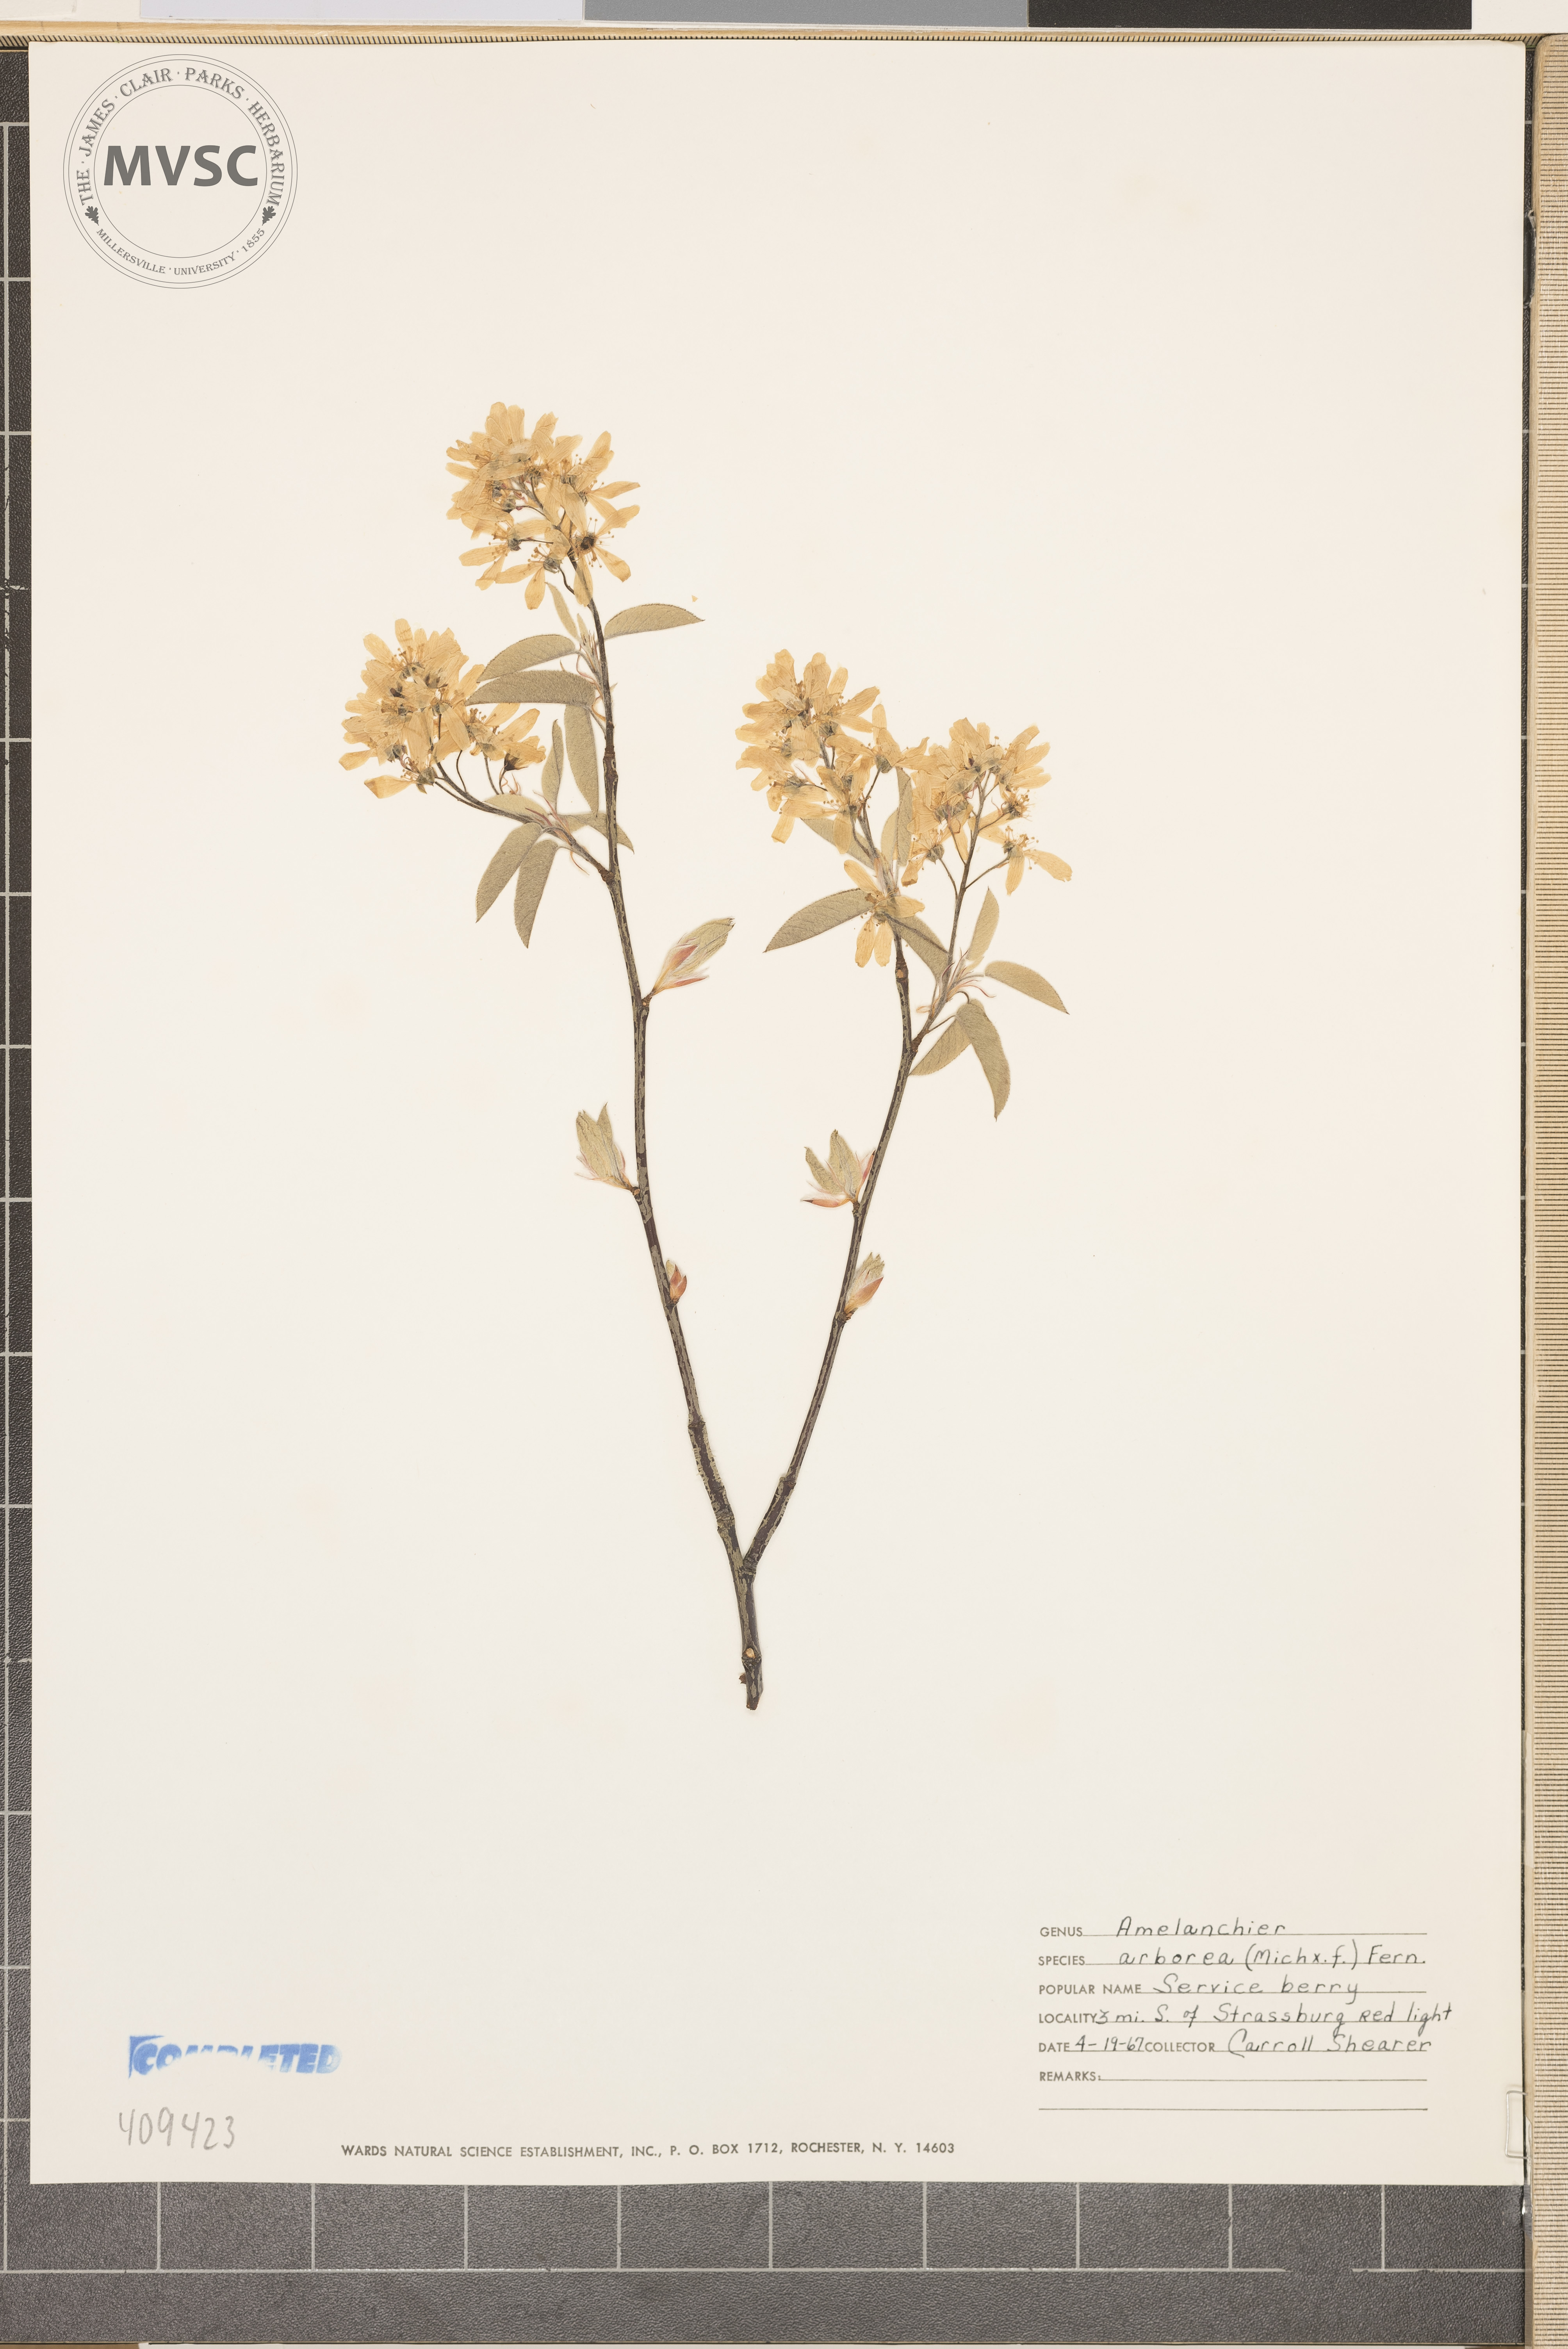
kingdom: Plantae
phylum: Tracheophyta
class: Magnoliopsida
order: Rosales
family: Rosaceae
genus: Amelanchier
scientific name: Amelanchier arborea
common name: Downy serviceberry
